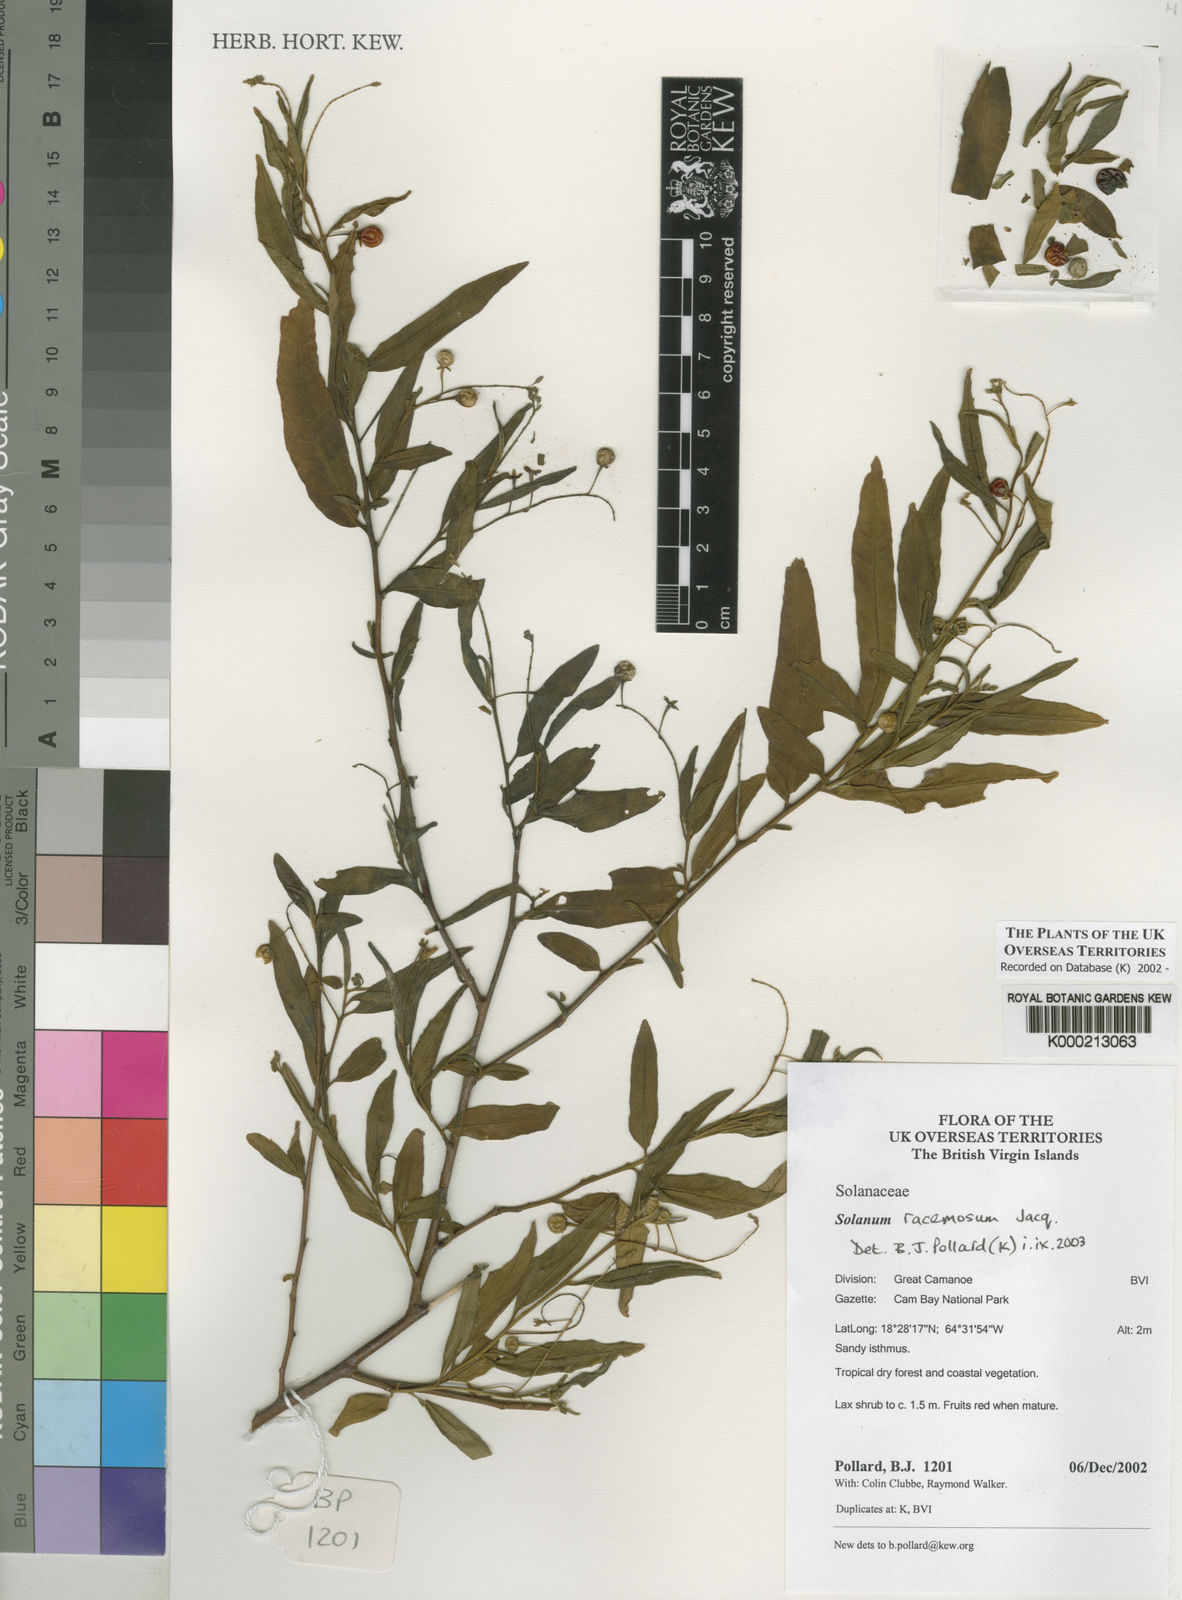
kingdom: Plantae
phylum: Tracheophyta
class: Magnoliopsida
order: Solanales
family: Solanaceae
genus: Solanum
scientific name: Solanum bahamense
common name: Canker-berry
